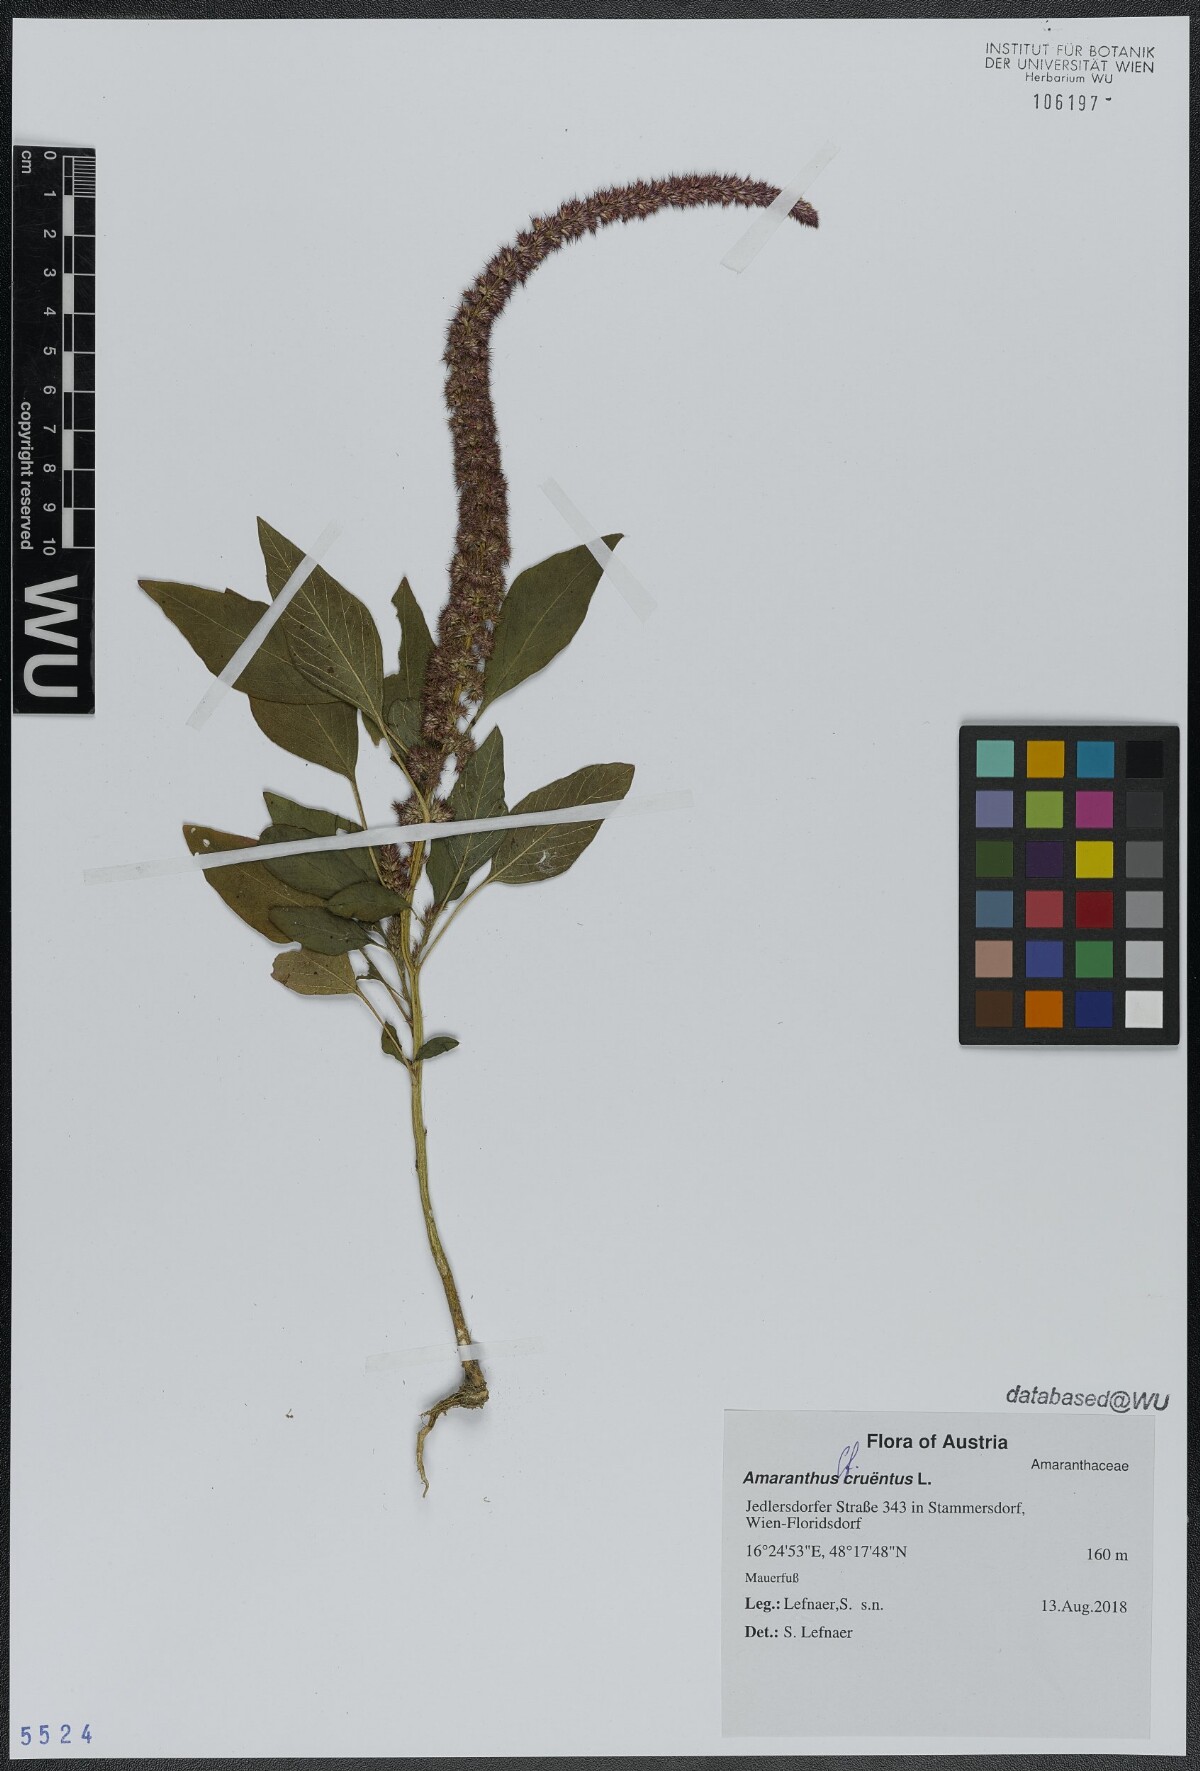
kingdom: Plantae
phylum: Tracheophyta
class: Magnoliopsida
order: Caryophyllales
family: Amaranthaceae
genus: Amaranthus
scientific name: Amaranthus cruentus
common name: Purple amaranth
